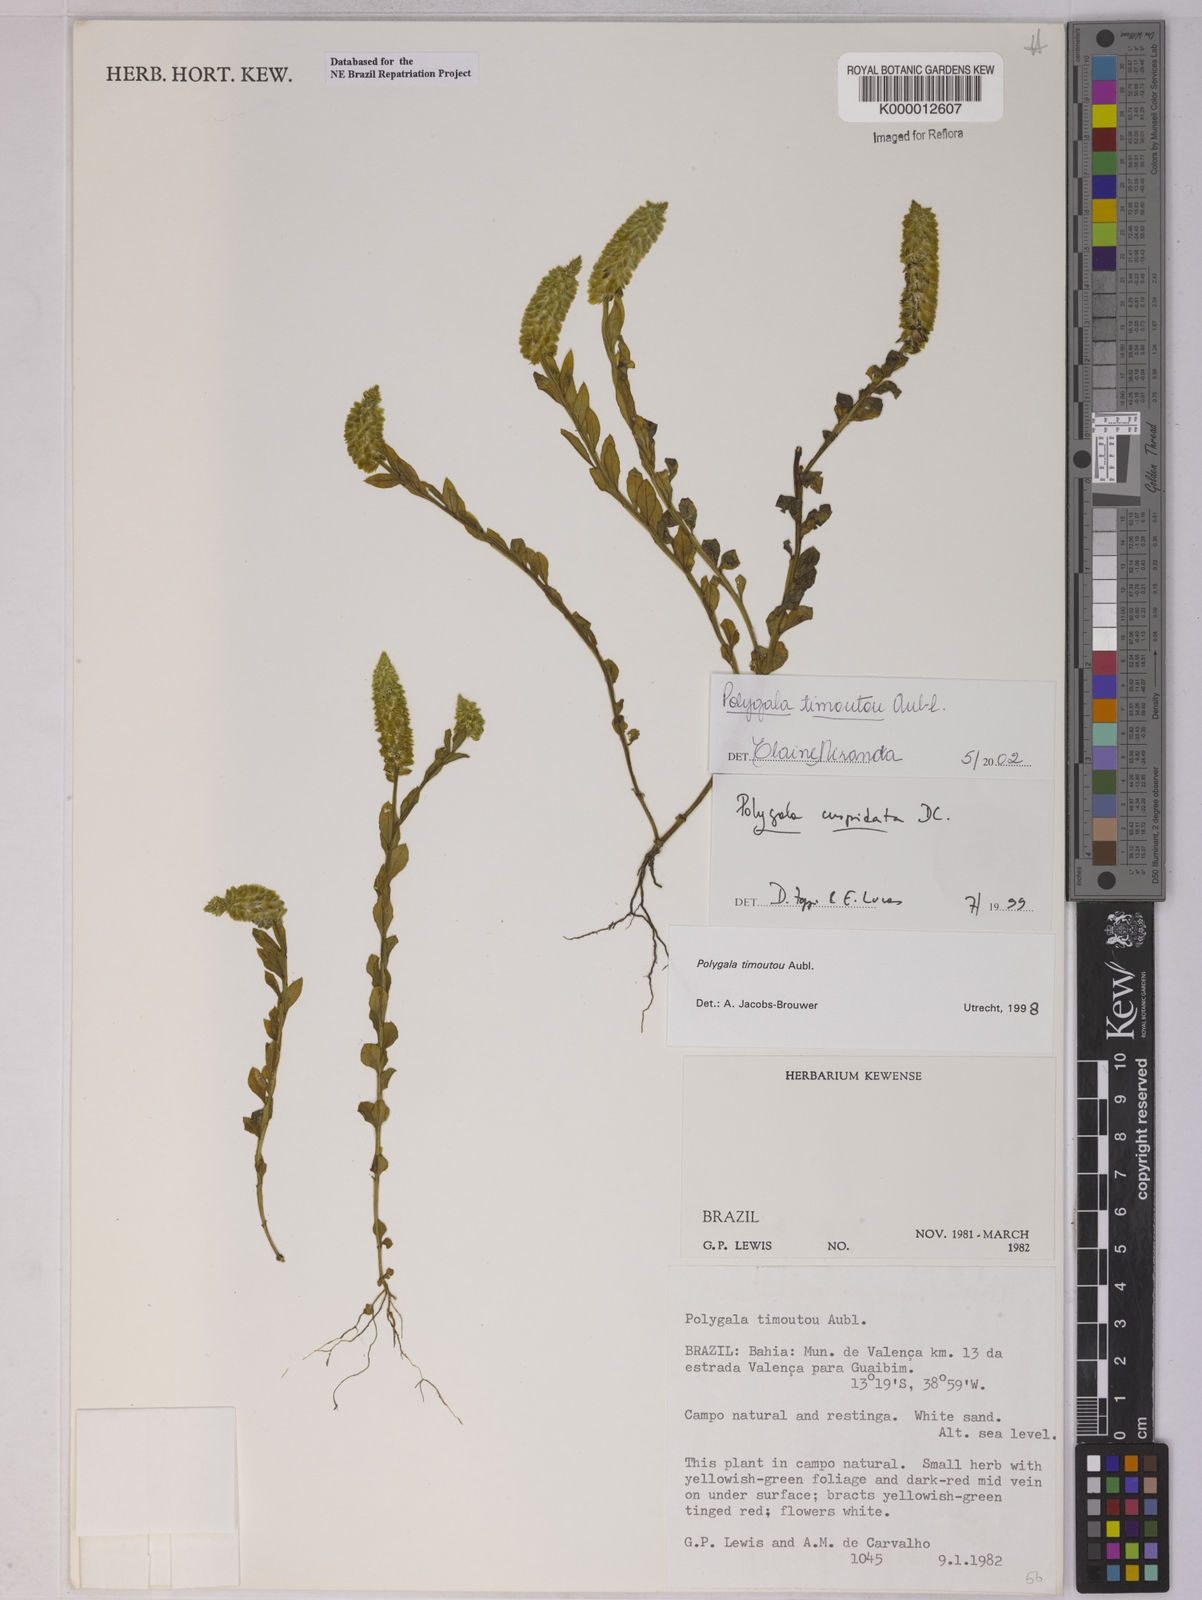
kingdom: Plantae
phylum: Tracheophyta
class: Magnoliopsida
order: Fabales
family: Polygalaceae
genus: Polygala
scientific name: Polygala timoutou
